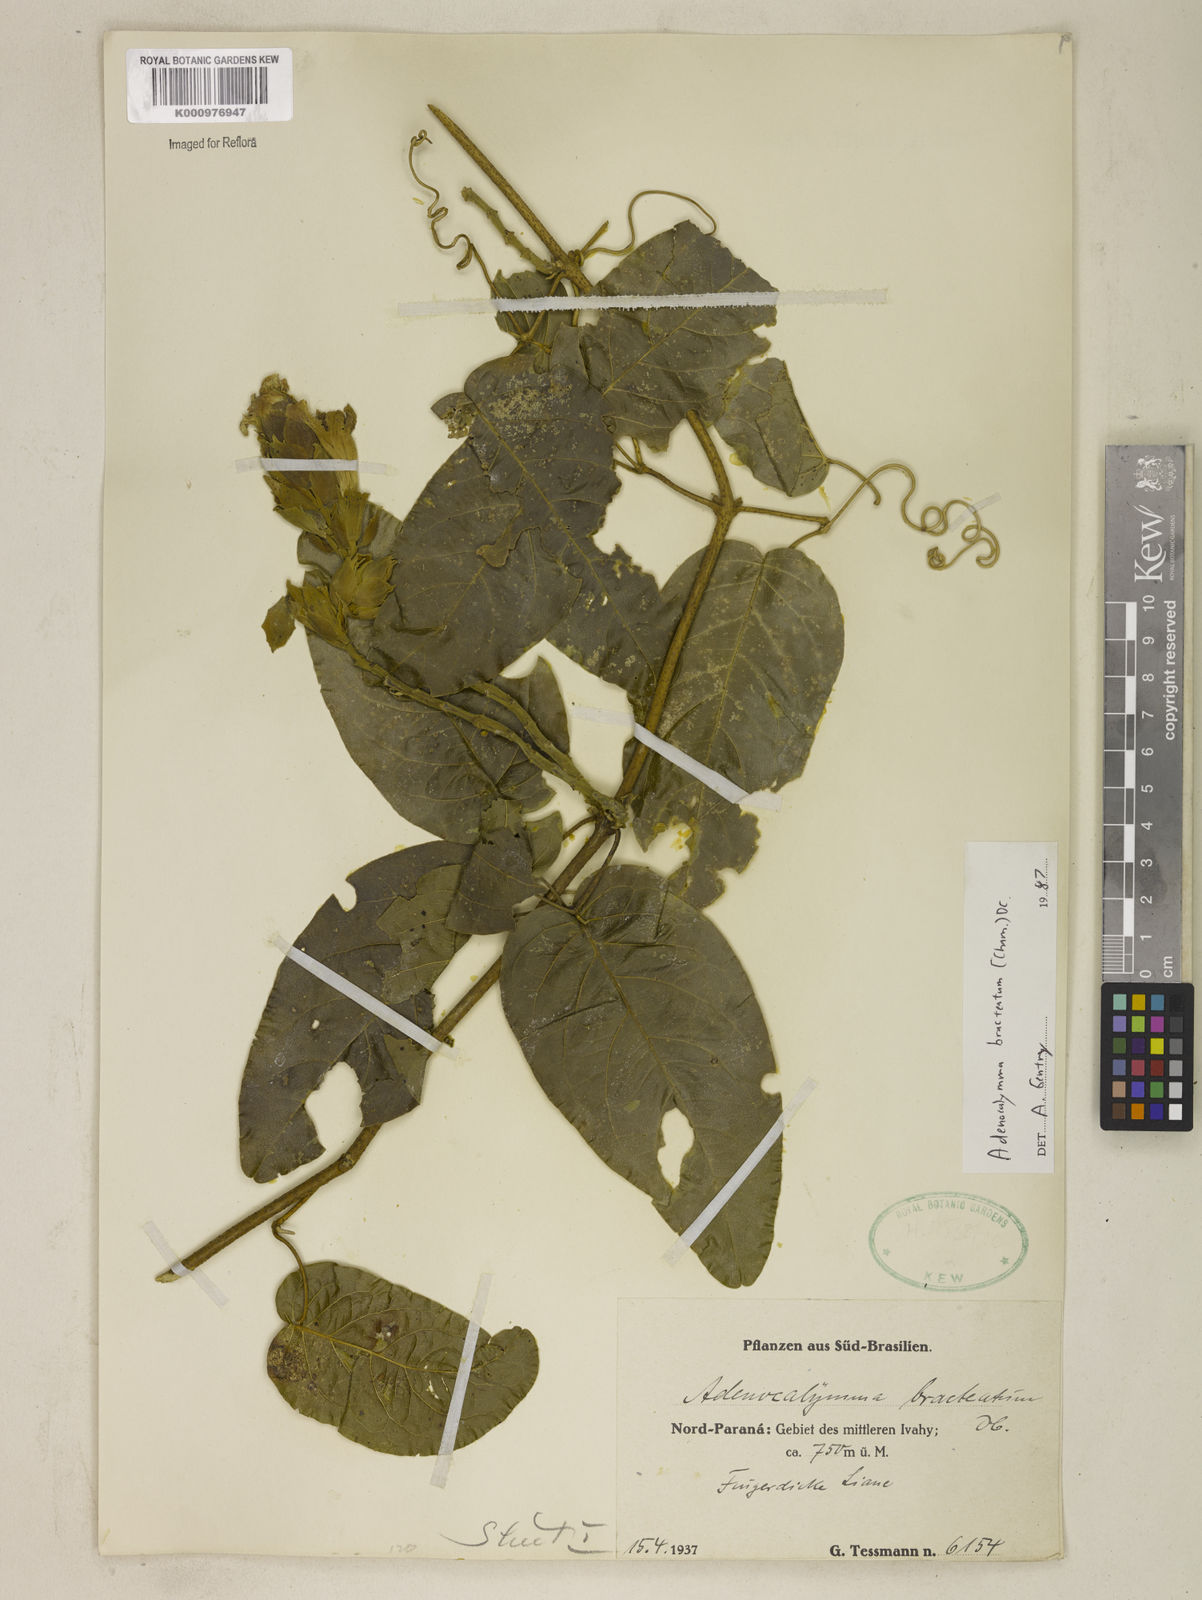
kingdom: Plantae
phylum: Tracheophyta
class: Magnoliopsida
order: Lamiales
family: Bignoniaceae
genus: Adenocalymma
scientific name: Adenocalymma bracteatum
